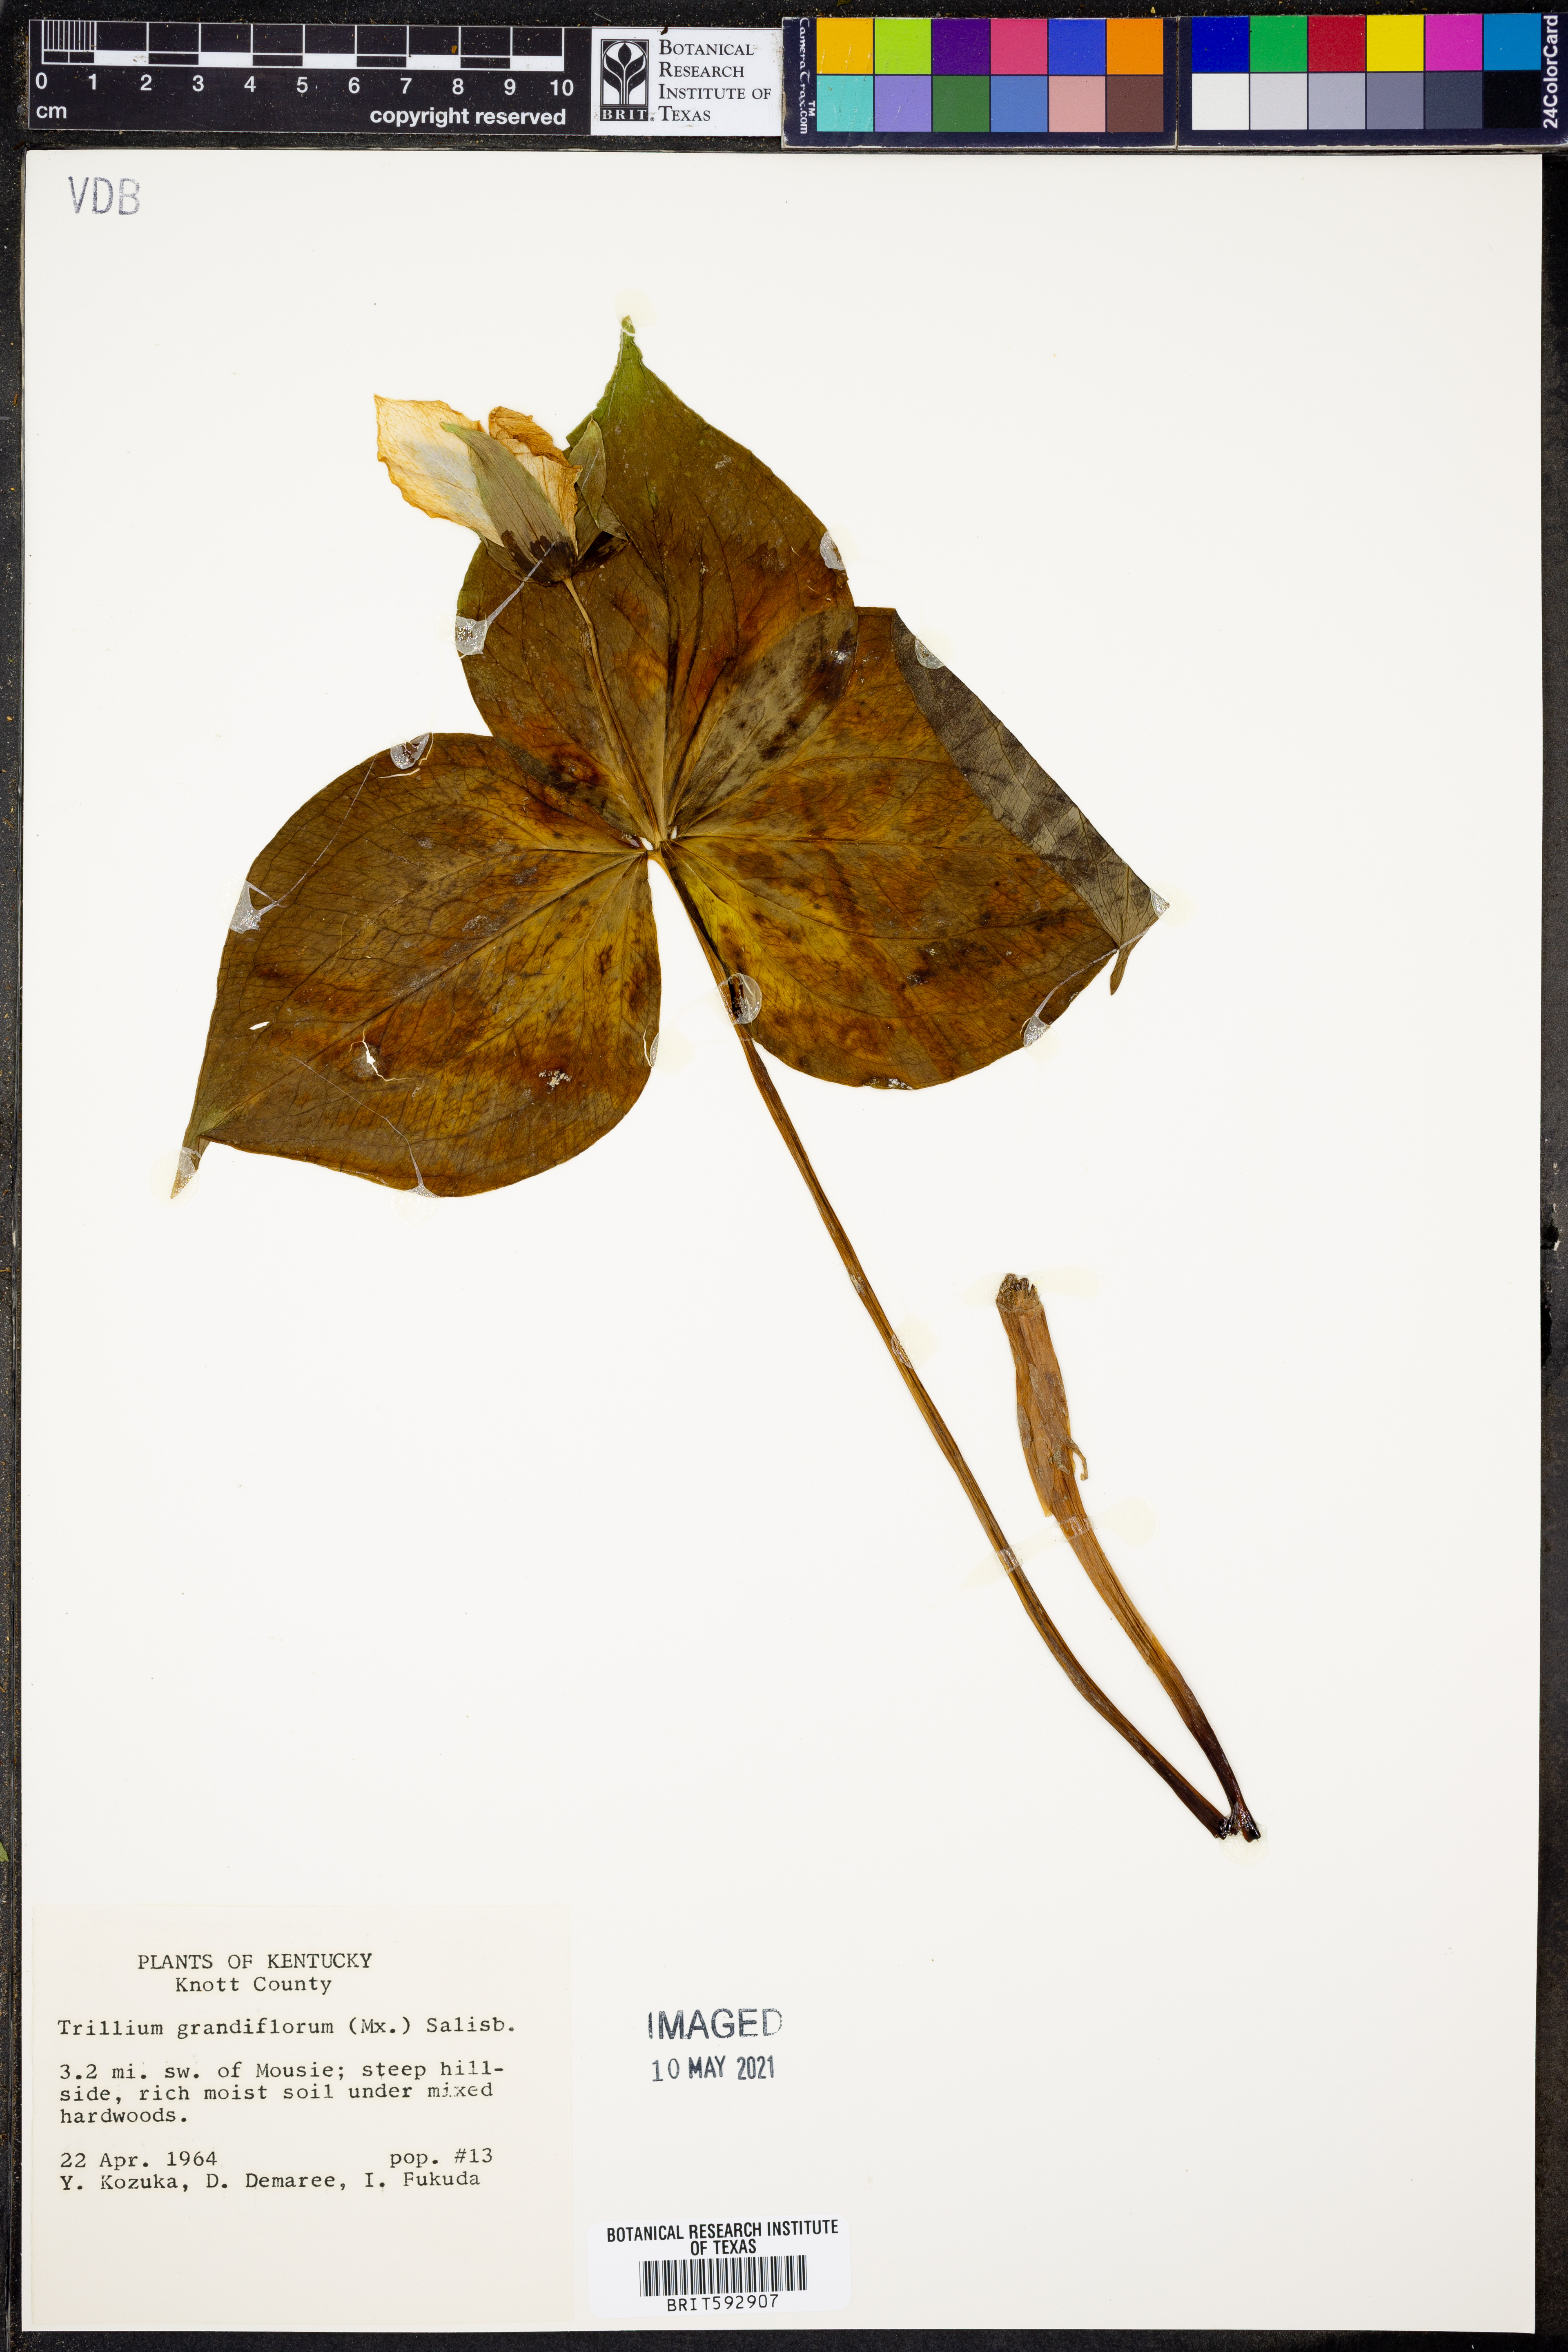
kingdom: Plantae
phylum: Tracheophyta
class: Liliopsida
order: Liliales
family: Melanthiaceae
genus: Trillium
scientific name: Trillium grandiflorum
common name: Great white trillium
